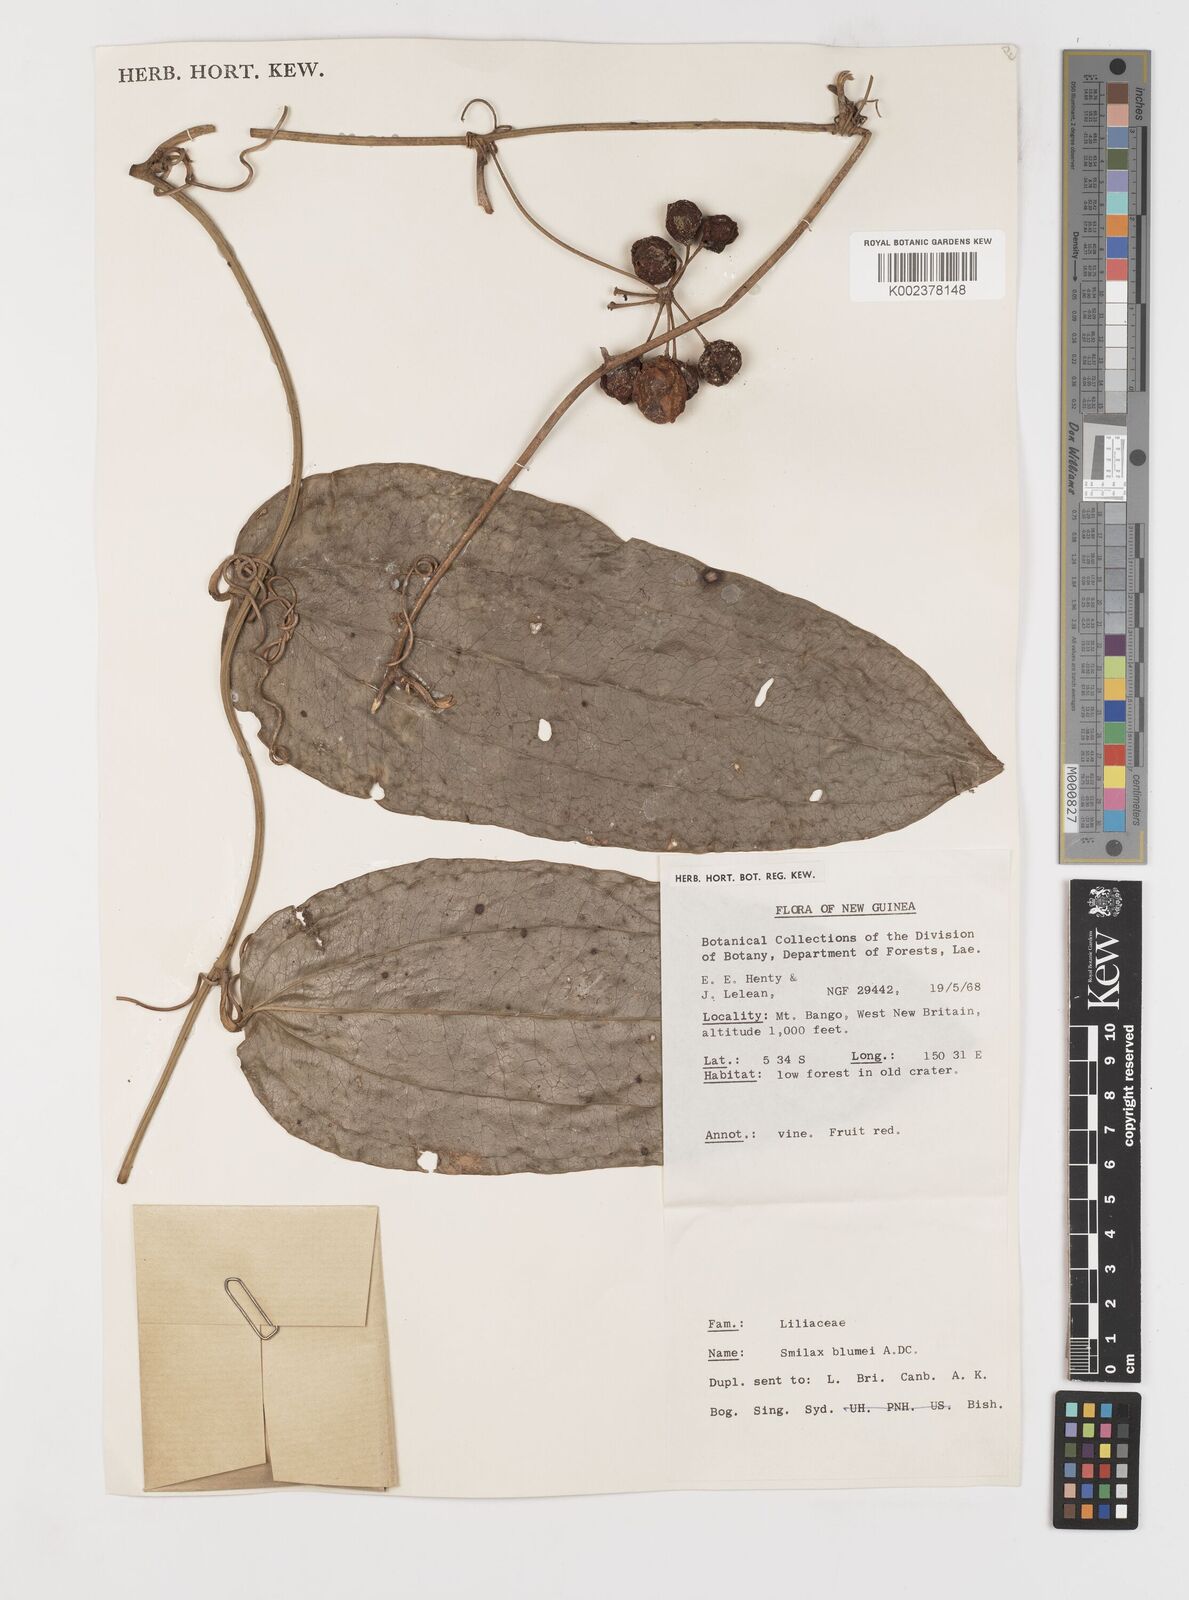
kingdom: Plantae
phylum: Tracheophyta
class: Liliopsida
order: Liliales
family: Smilacaceae
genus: Smilax
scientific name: Smilax blumei
